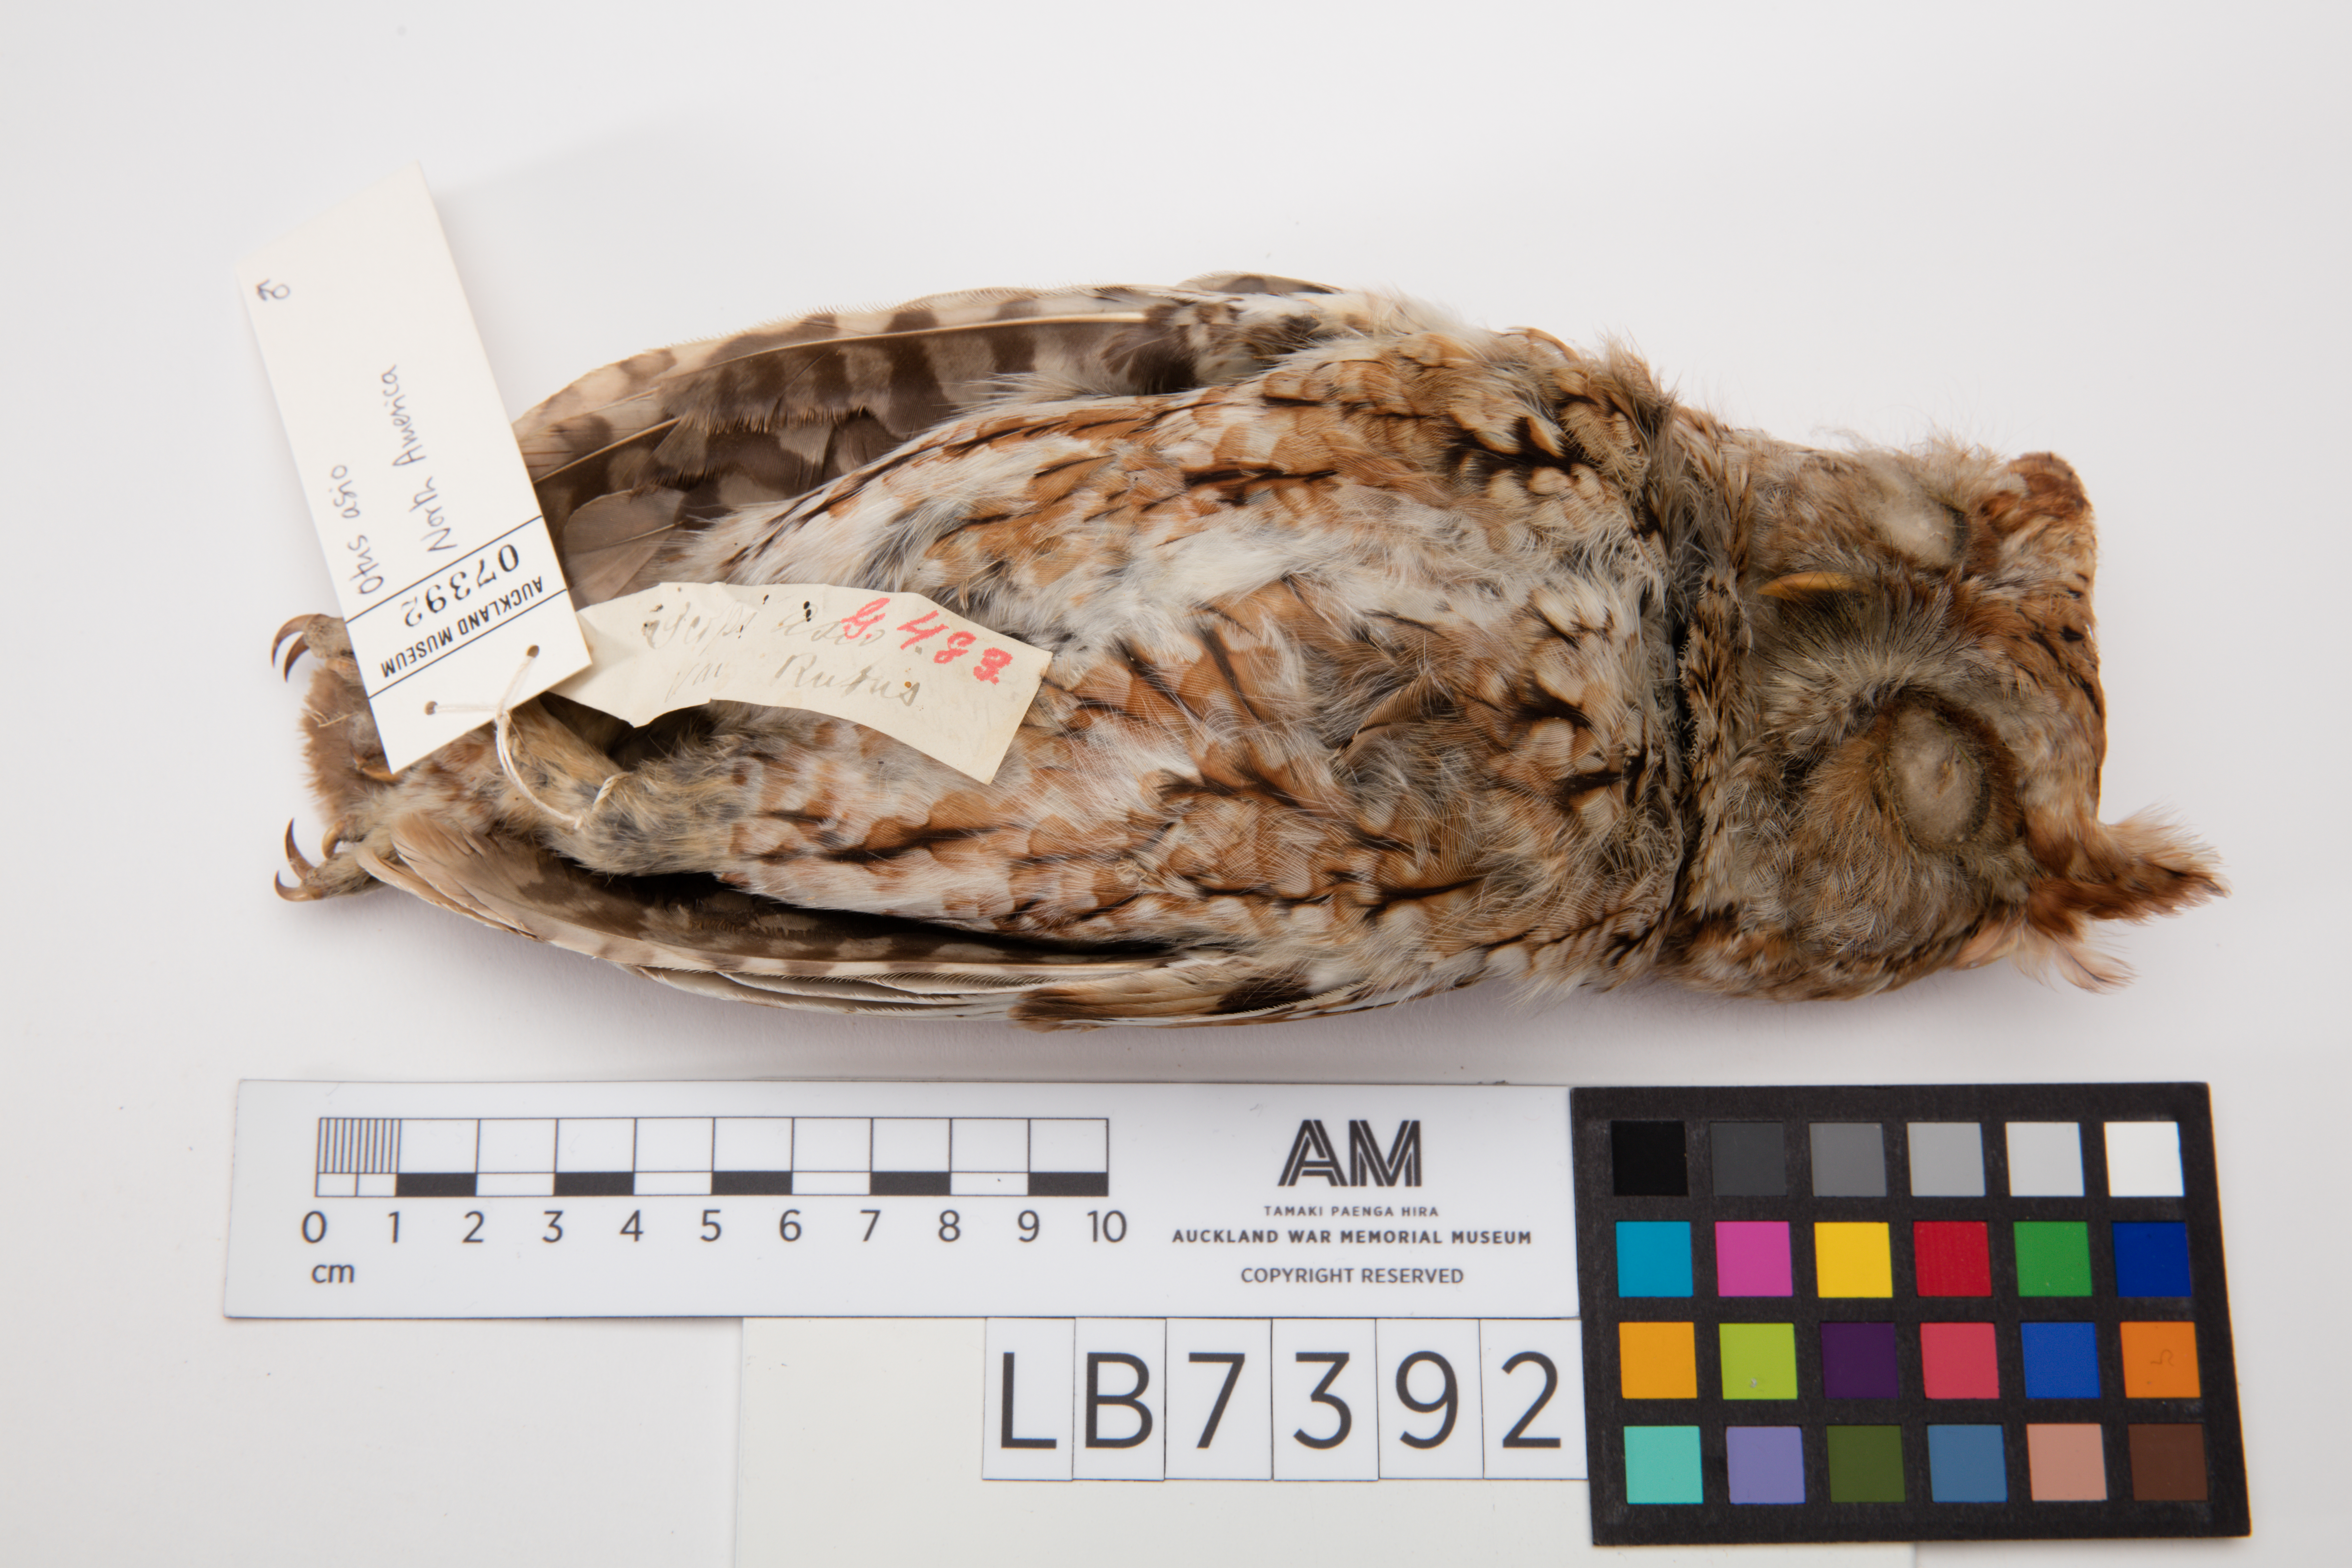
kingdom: Animalia
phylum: Chordata
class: Aves
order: Strigiformes
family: Strigidae
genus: Megascops
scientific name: Megascops asio
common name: Eastern screech-owl
